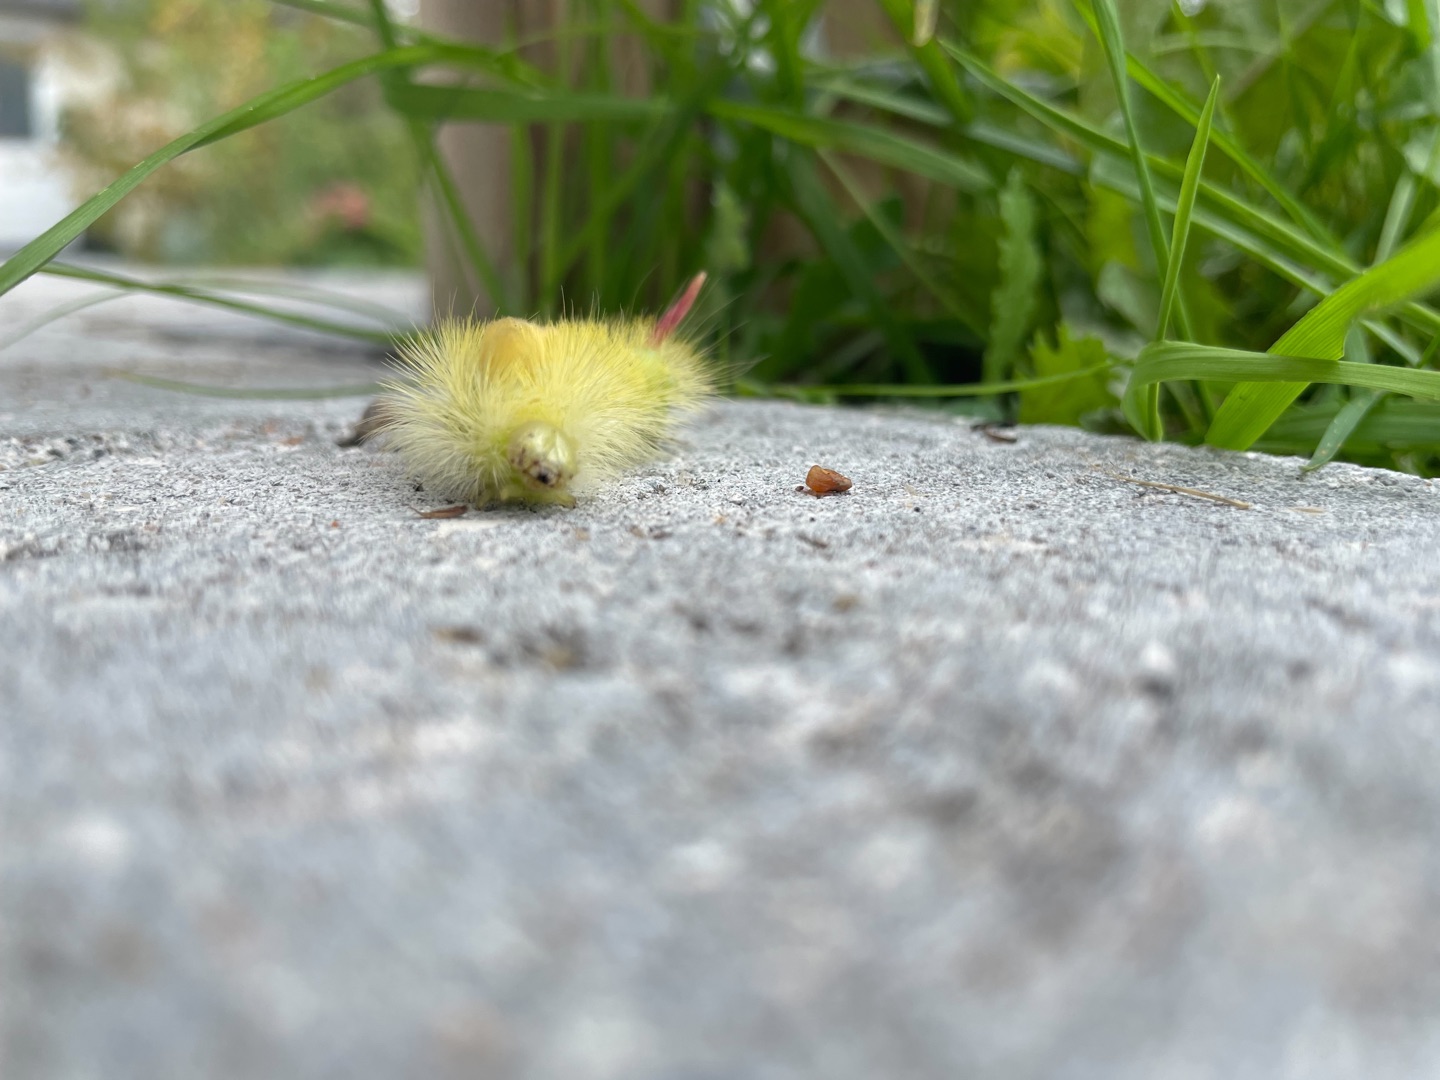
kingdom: Animalia
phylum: Arthropoda
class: Insecta
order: Lepidoptera
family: Erebidae
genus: Calliteara
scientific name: Calliteara pudibunda
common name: Bøgenonne
